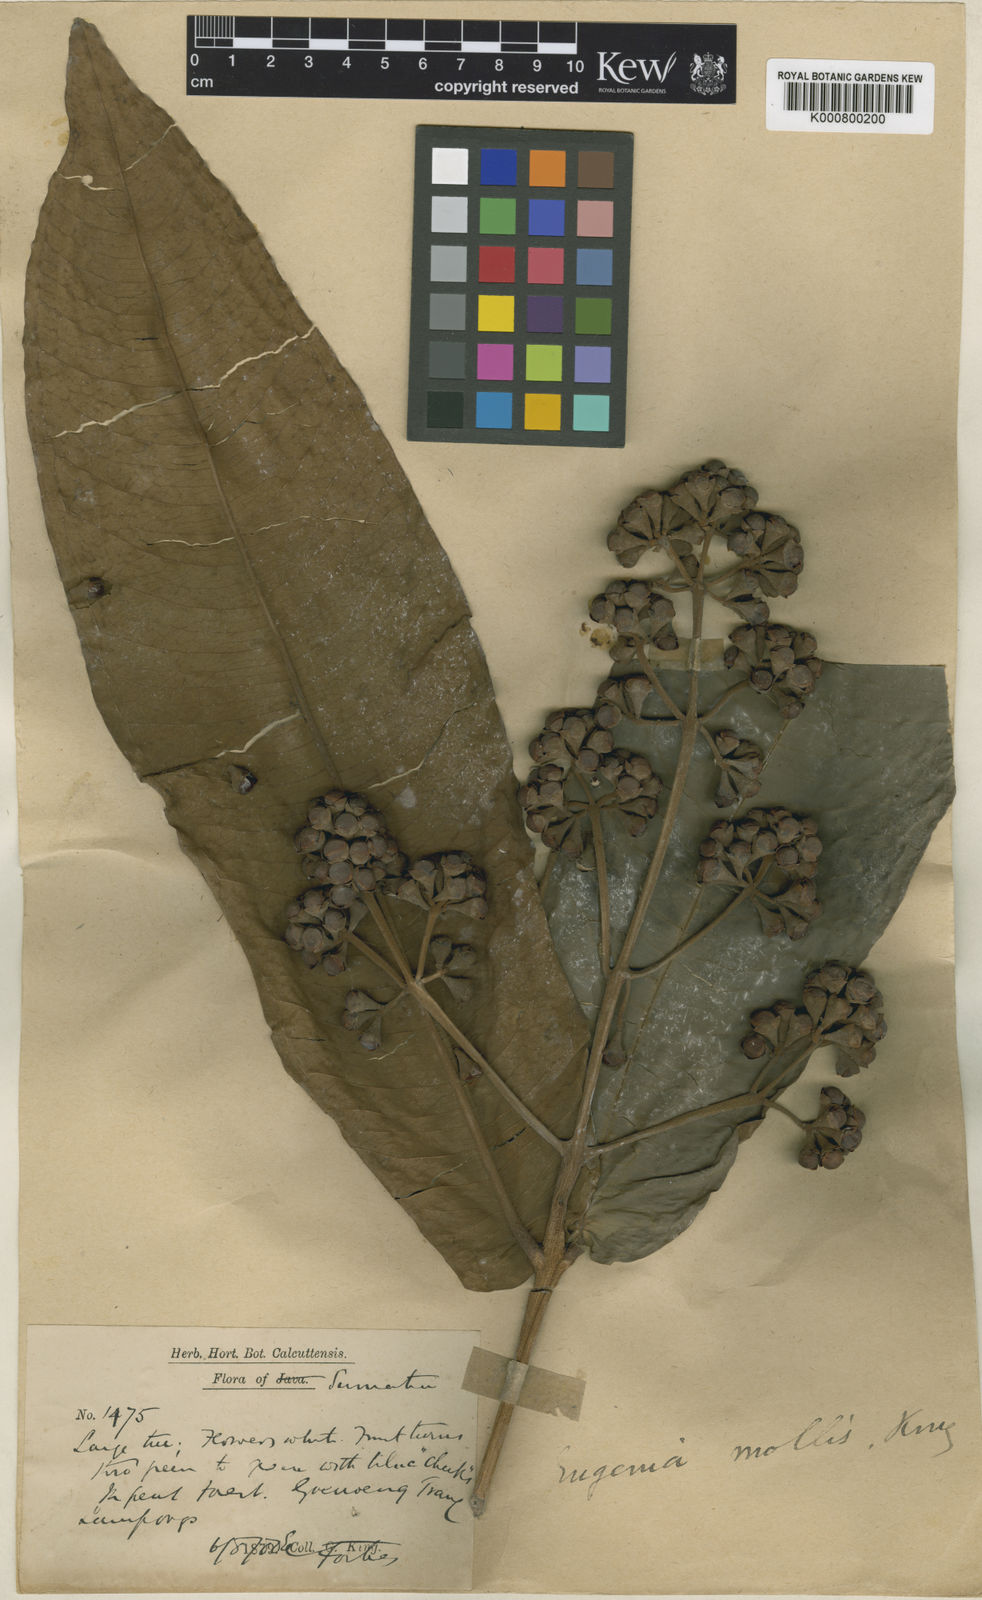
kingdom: Plantae
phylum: Tracheophyta
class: Magnoliopsida
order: Myrtales
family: Myrtaceae
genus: Syzygium
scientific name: Syzygium pseudomolle
